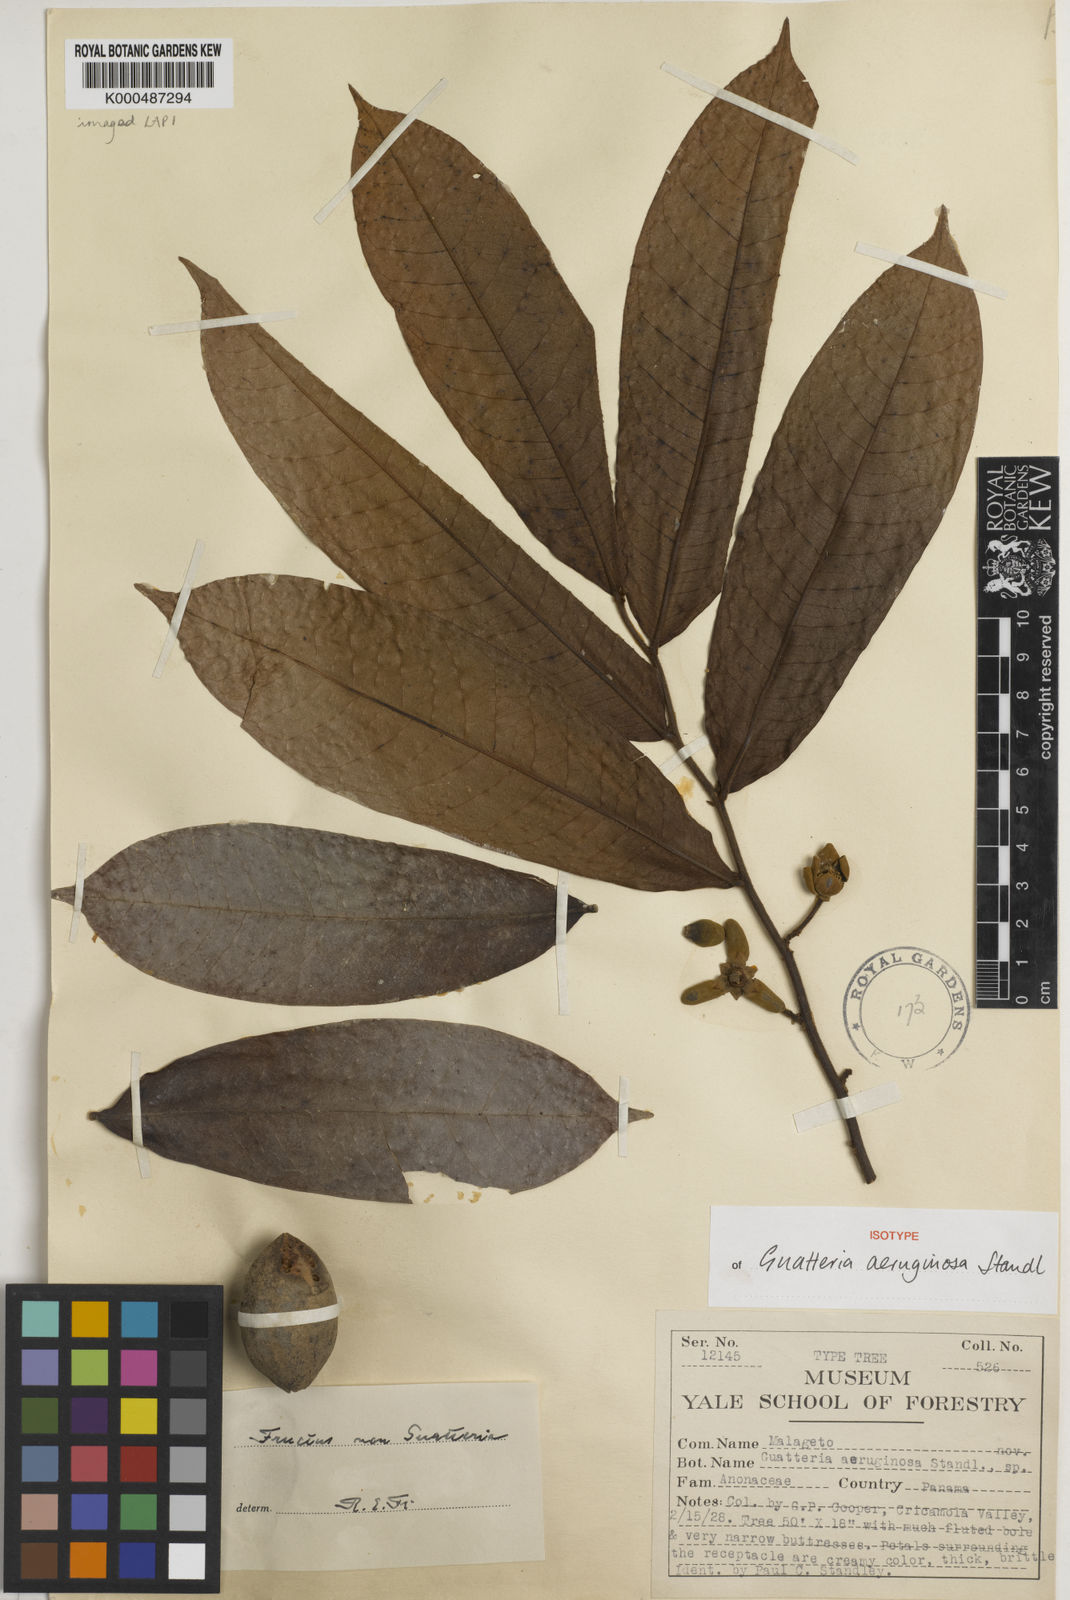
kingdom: Plantae
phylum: Tracheophyta
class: Magnoliopsida
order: Magnoliales
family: Annonaceae
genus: Guatteria
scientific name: Guatteria aeruginosa
